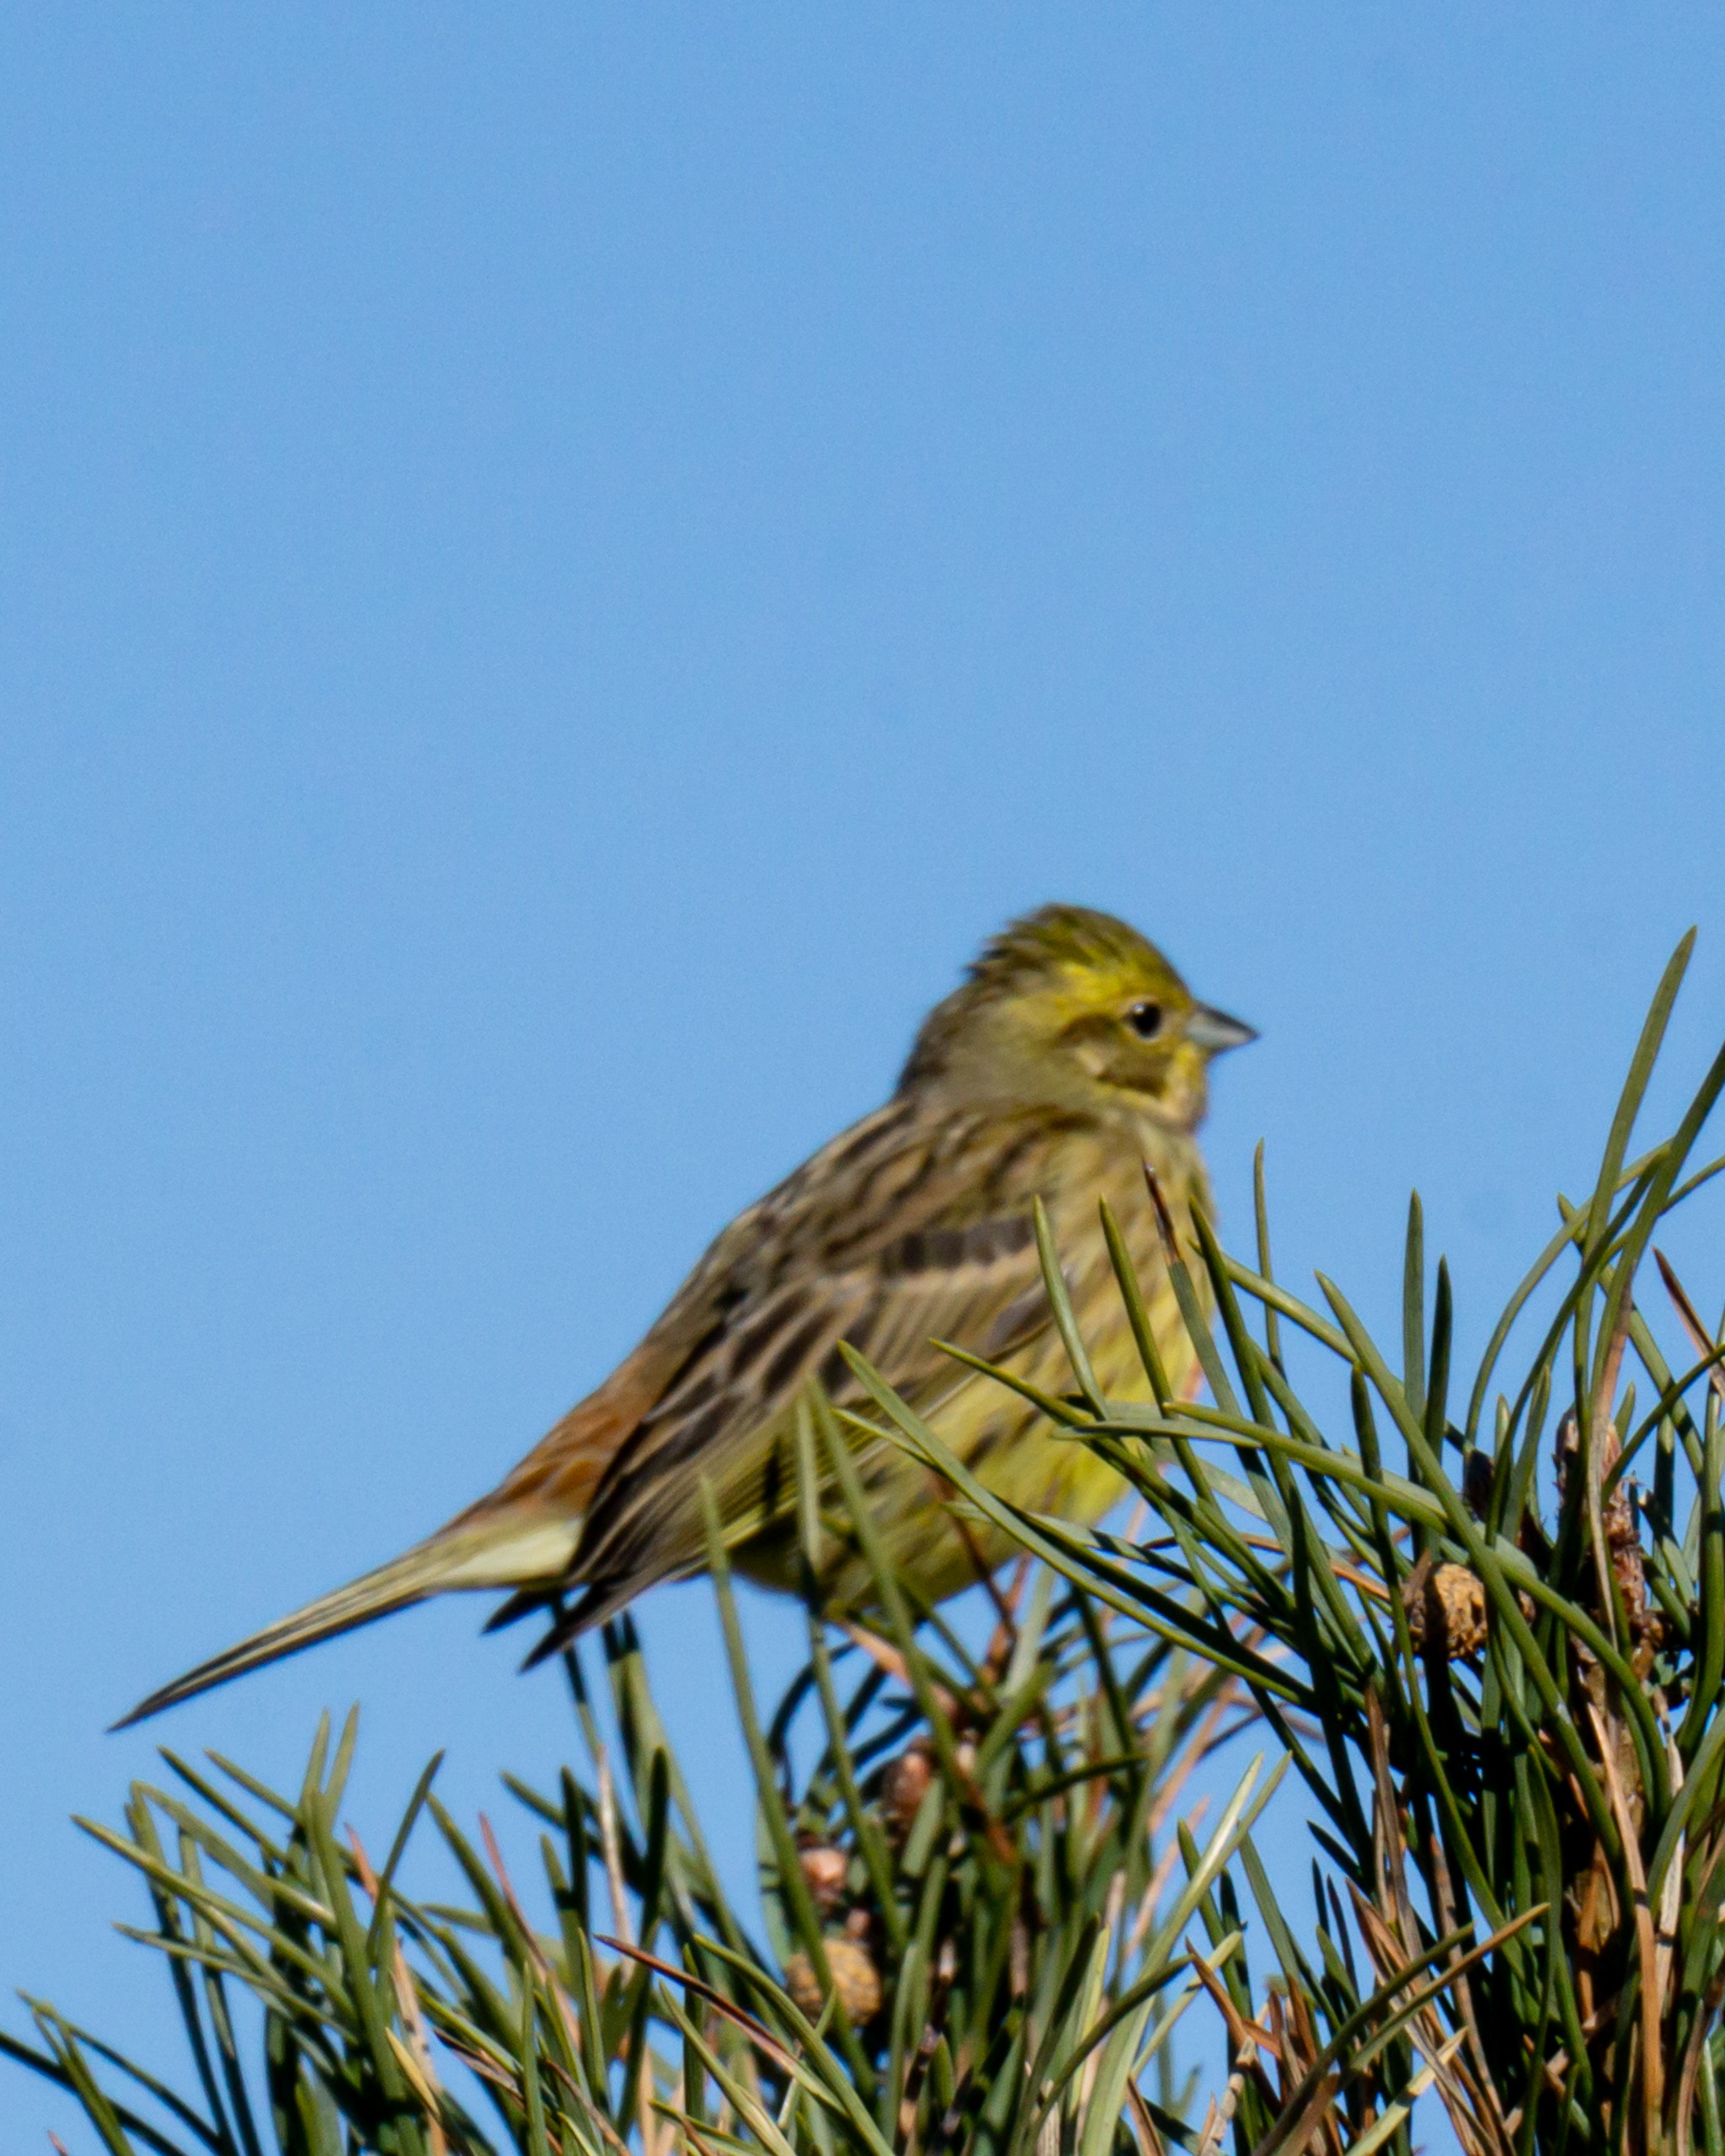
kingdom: Animalia
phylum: Chordata
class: Aves
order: Passeriformes
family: Emberizidae
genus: Emberiza
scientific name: Emberiza citrinella
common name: Gulspurv
